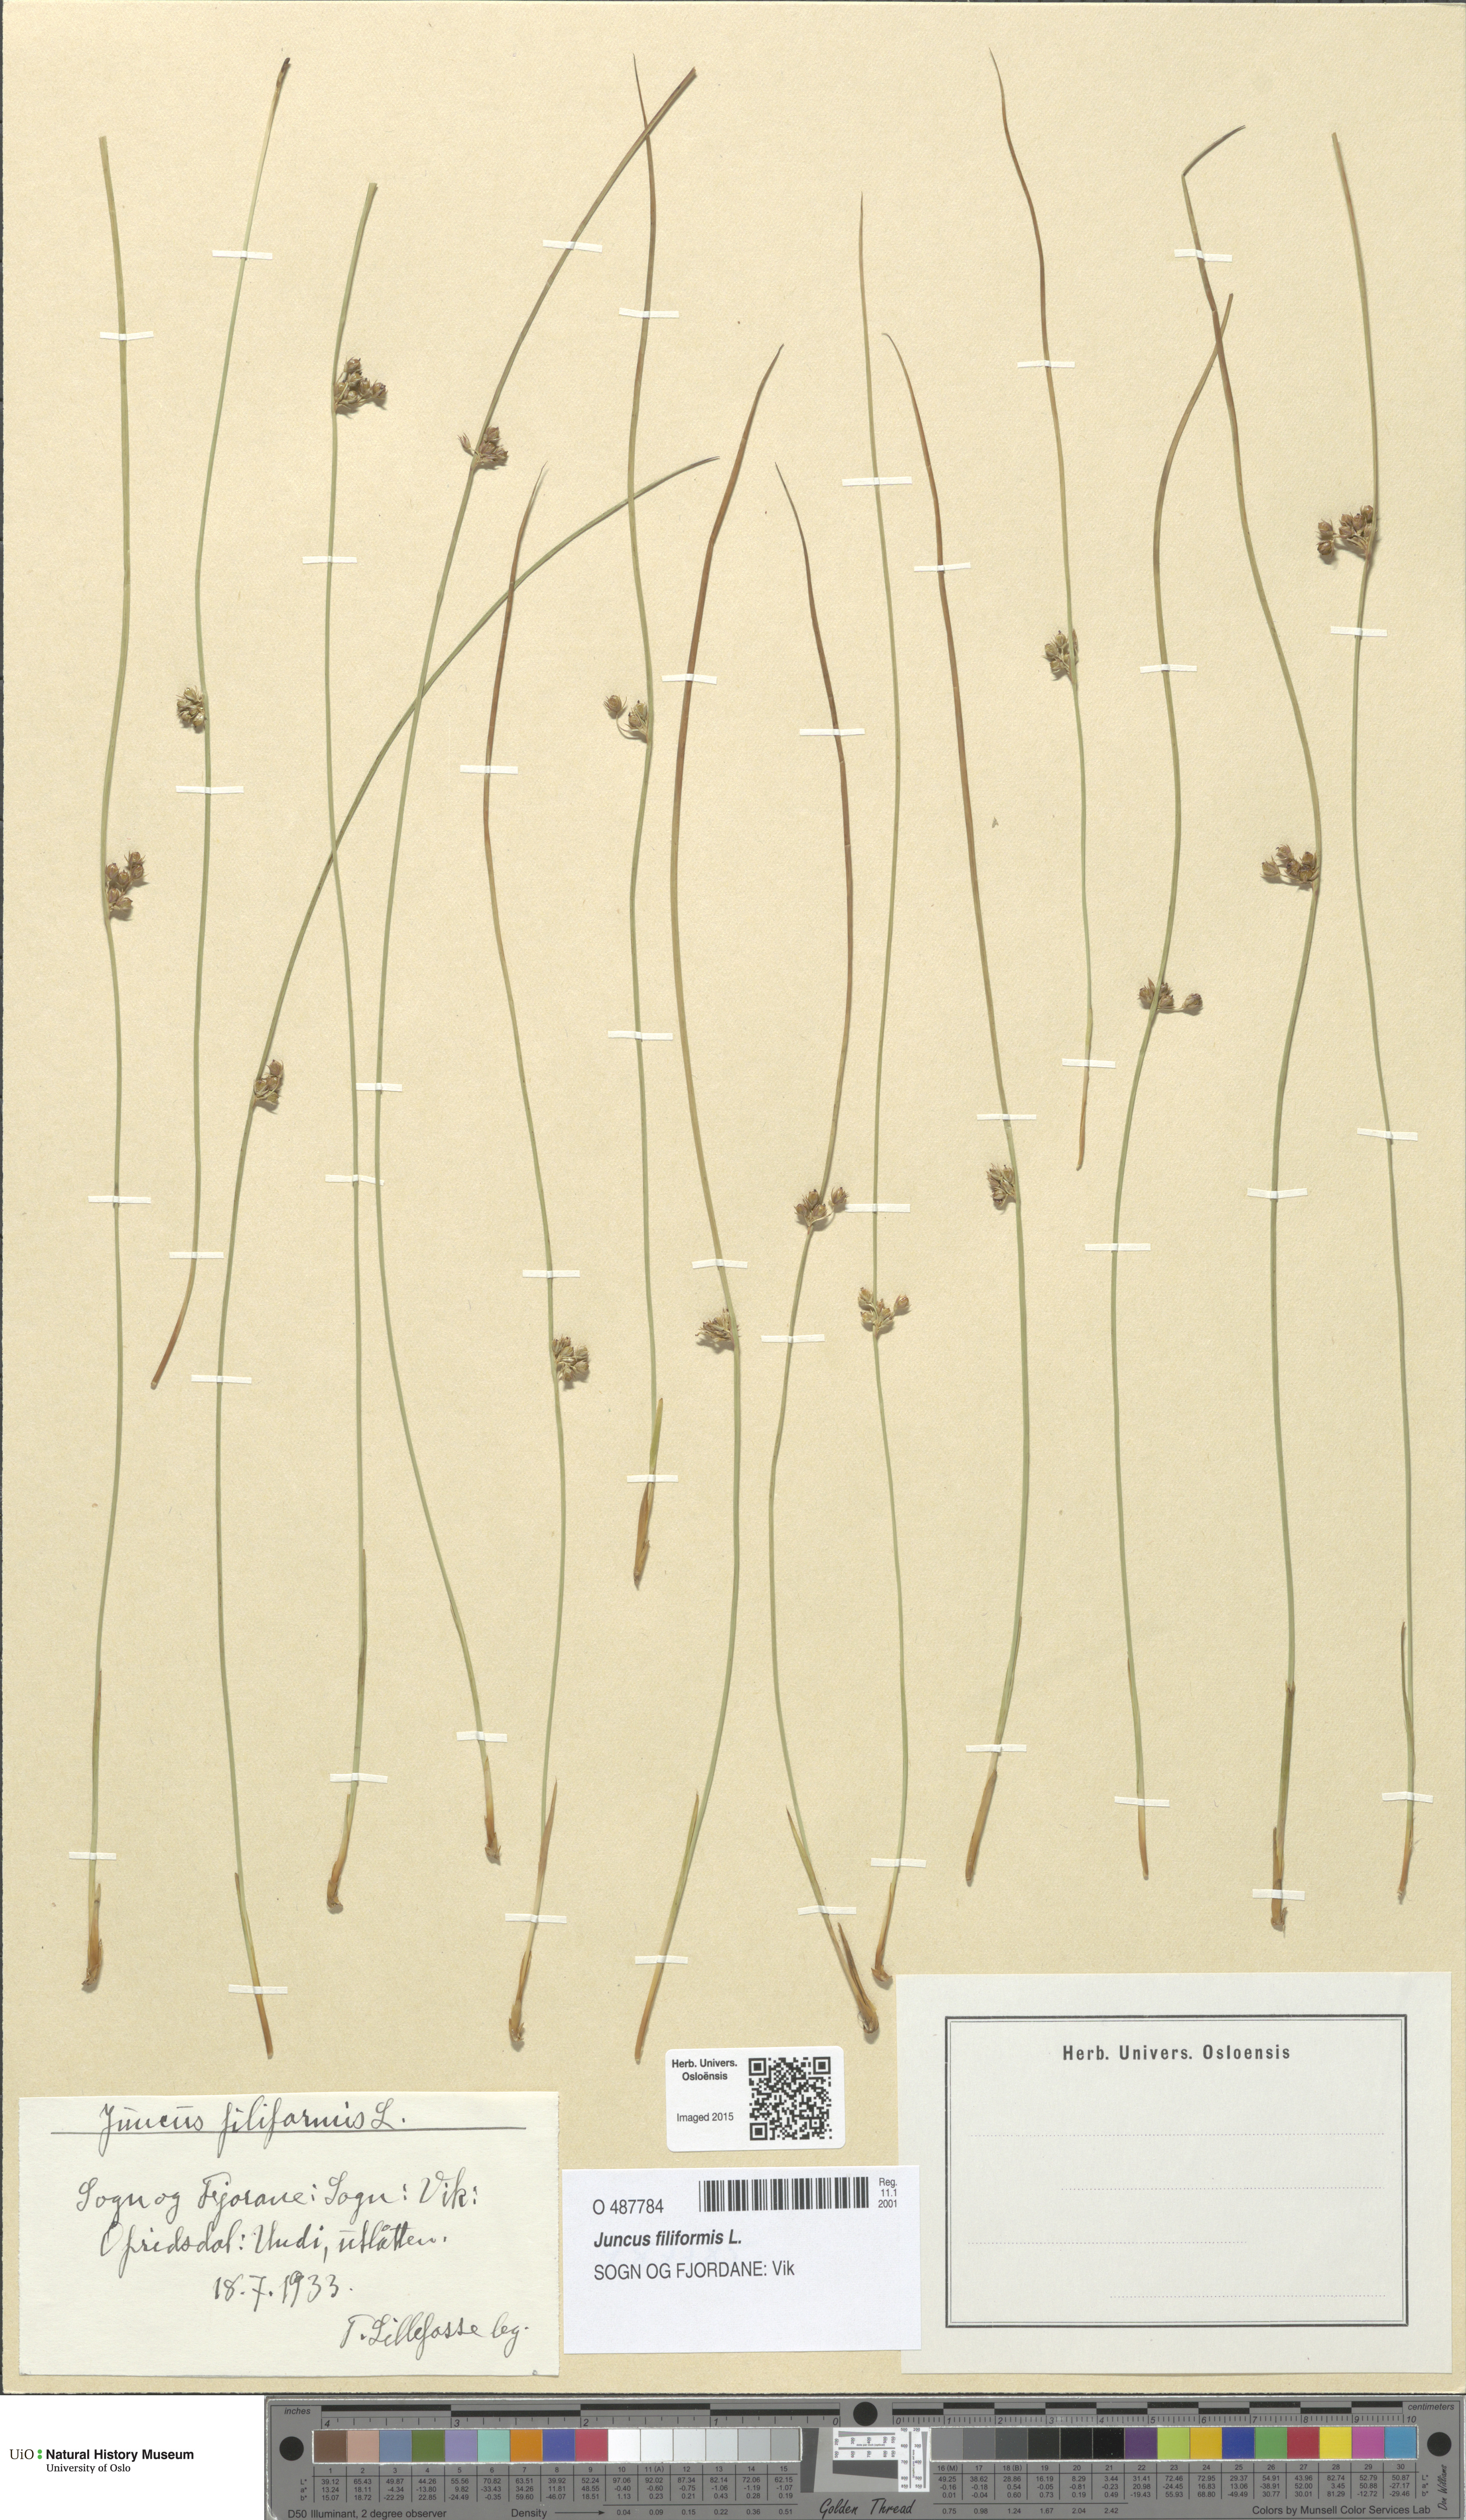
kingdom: Plantae
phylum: Tracheophyta
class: Liliopsida
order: Poales
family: Juncaceae
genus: Juncus
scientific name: Juncus filiformis
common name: Thread rush
